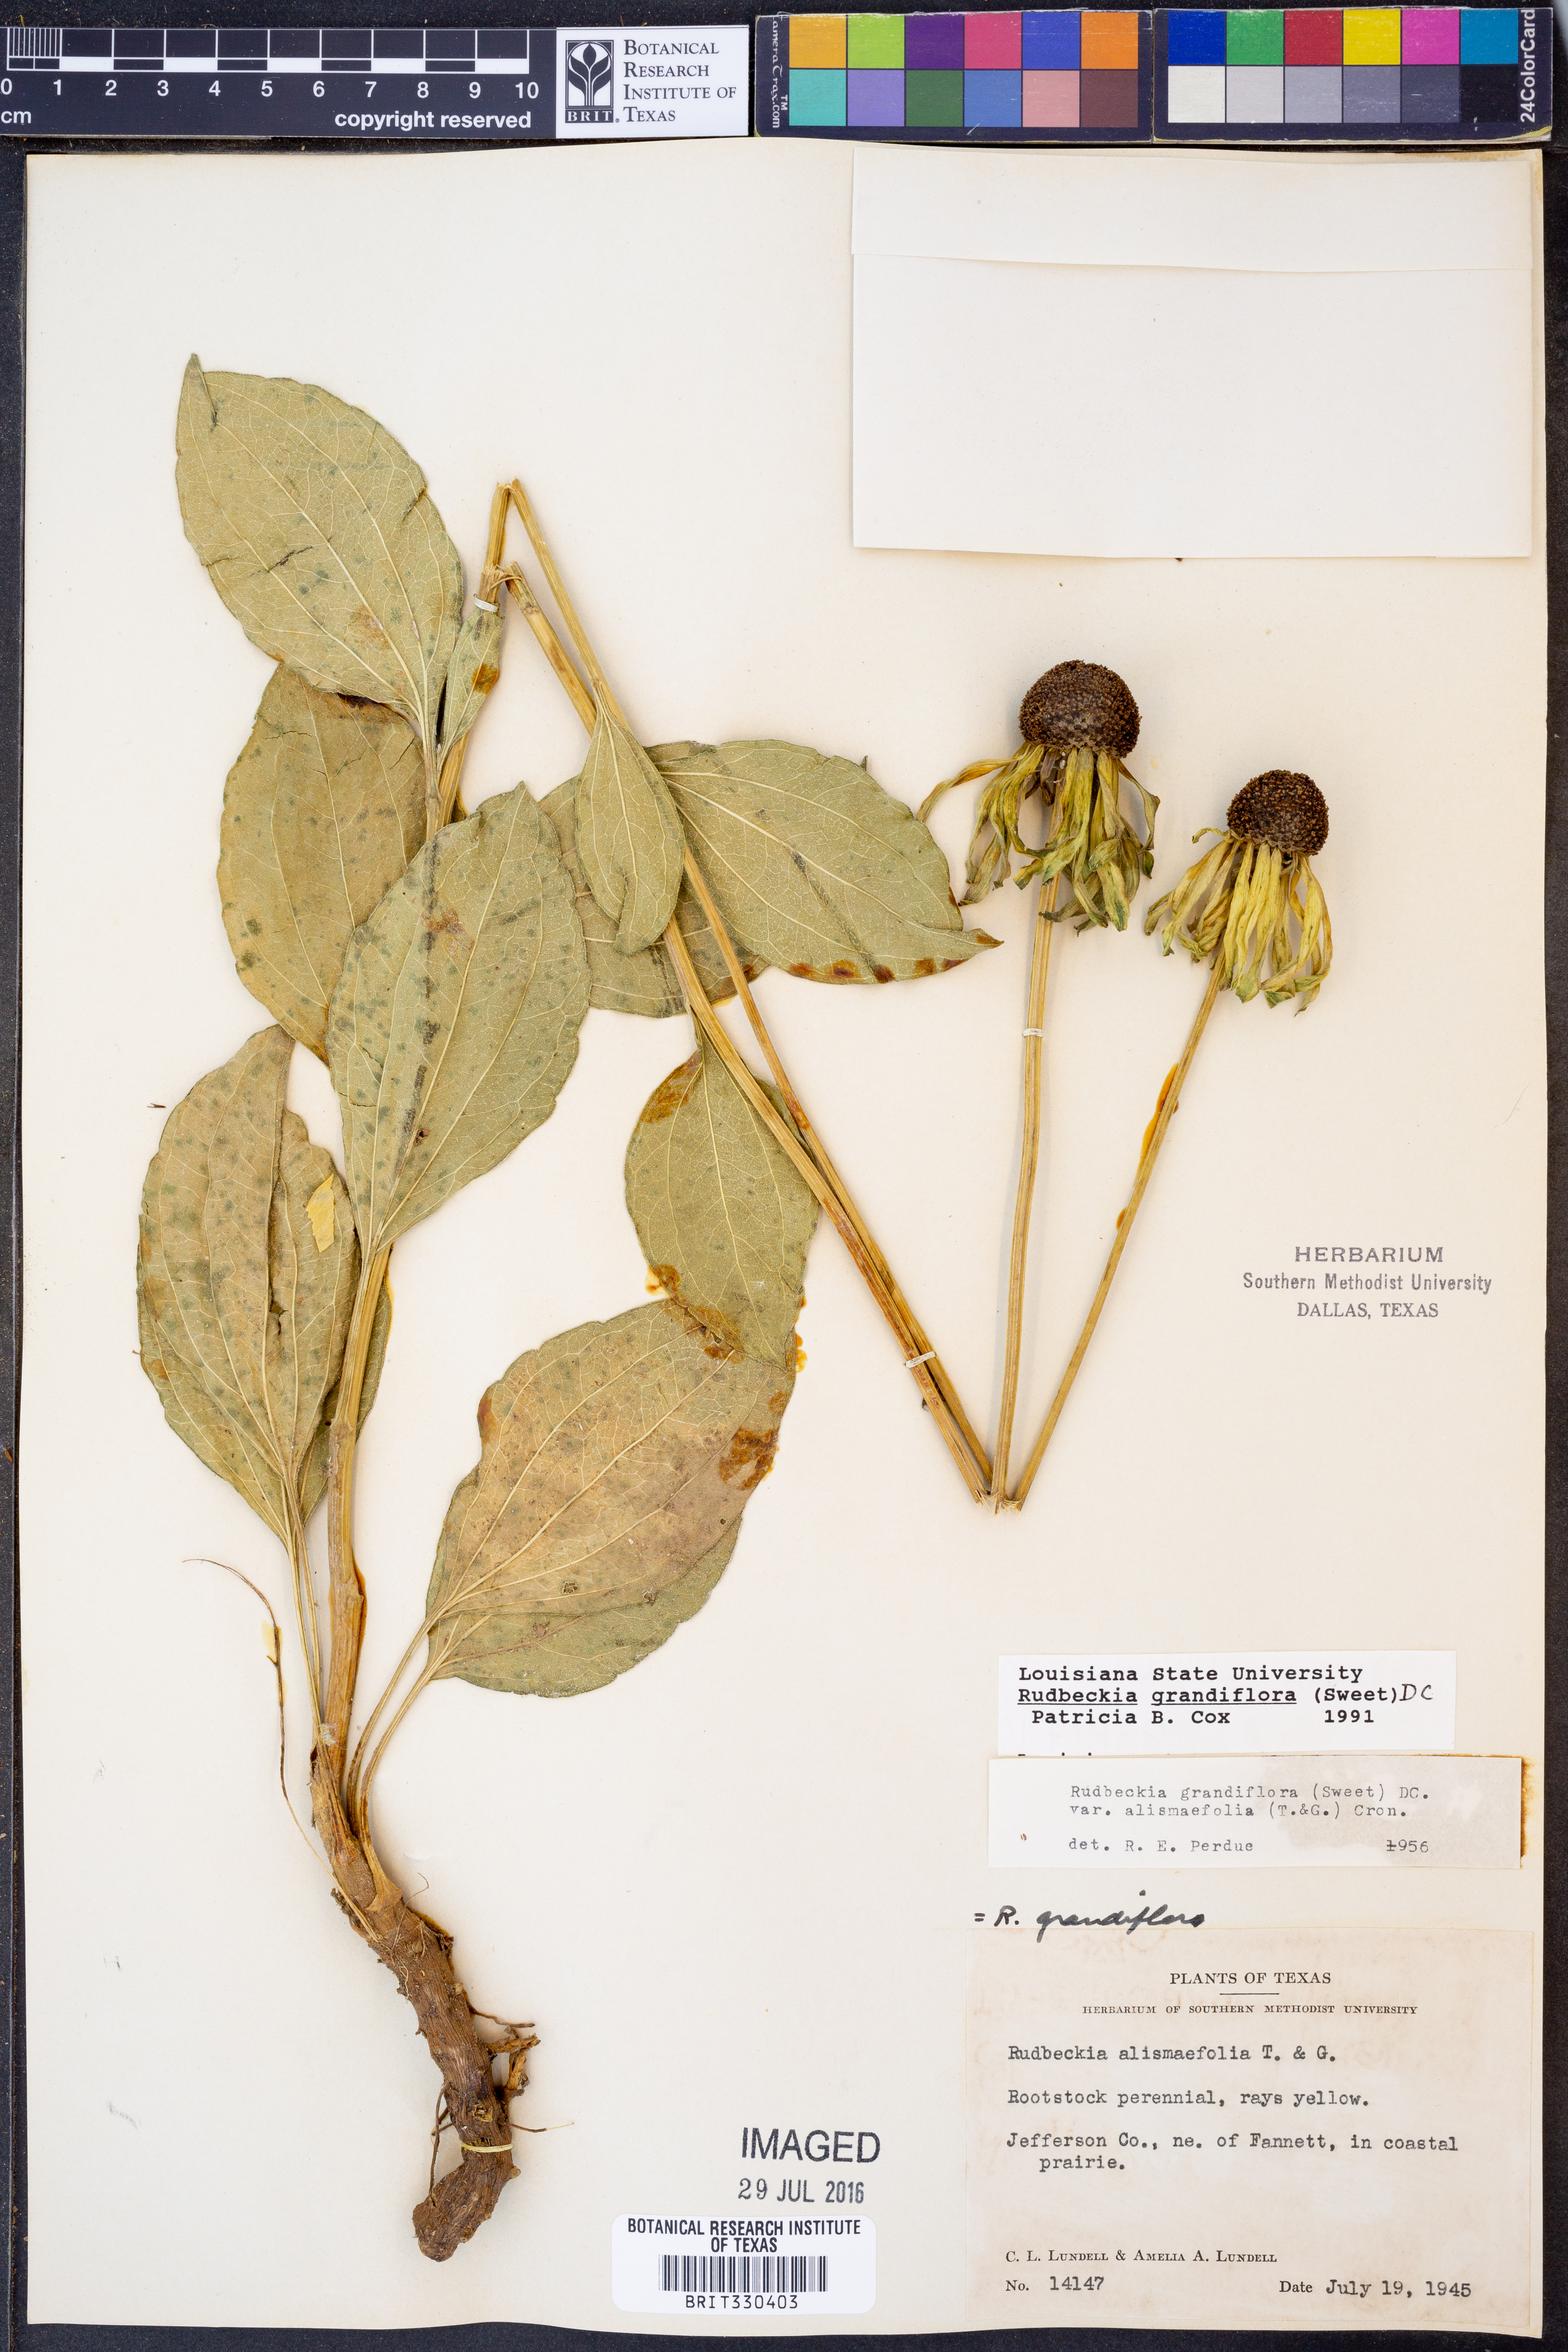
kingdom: Plantae
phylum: Tracheophyta
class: Magnoliopsida
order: Asterales
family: Asteraceae
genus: Rudbeckia
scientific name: Rudbeckia grandiflora
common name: Large-flowered coneflower
